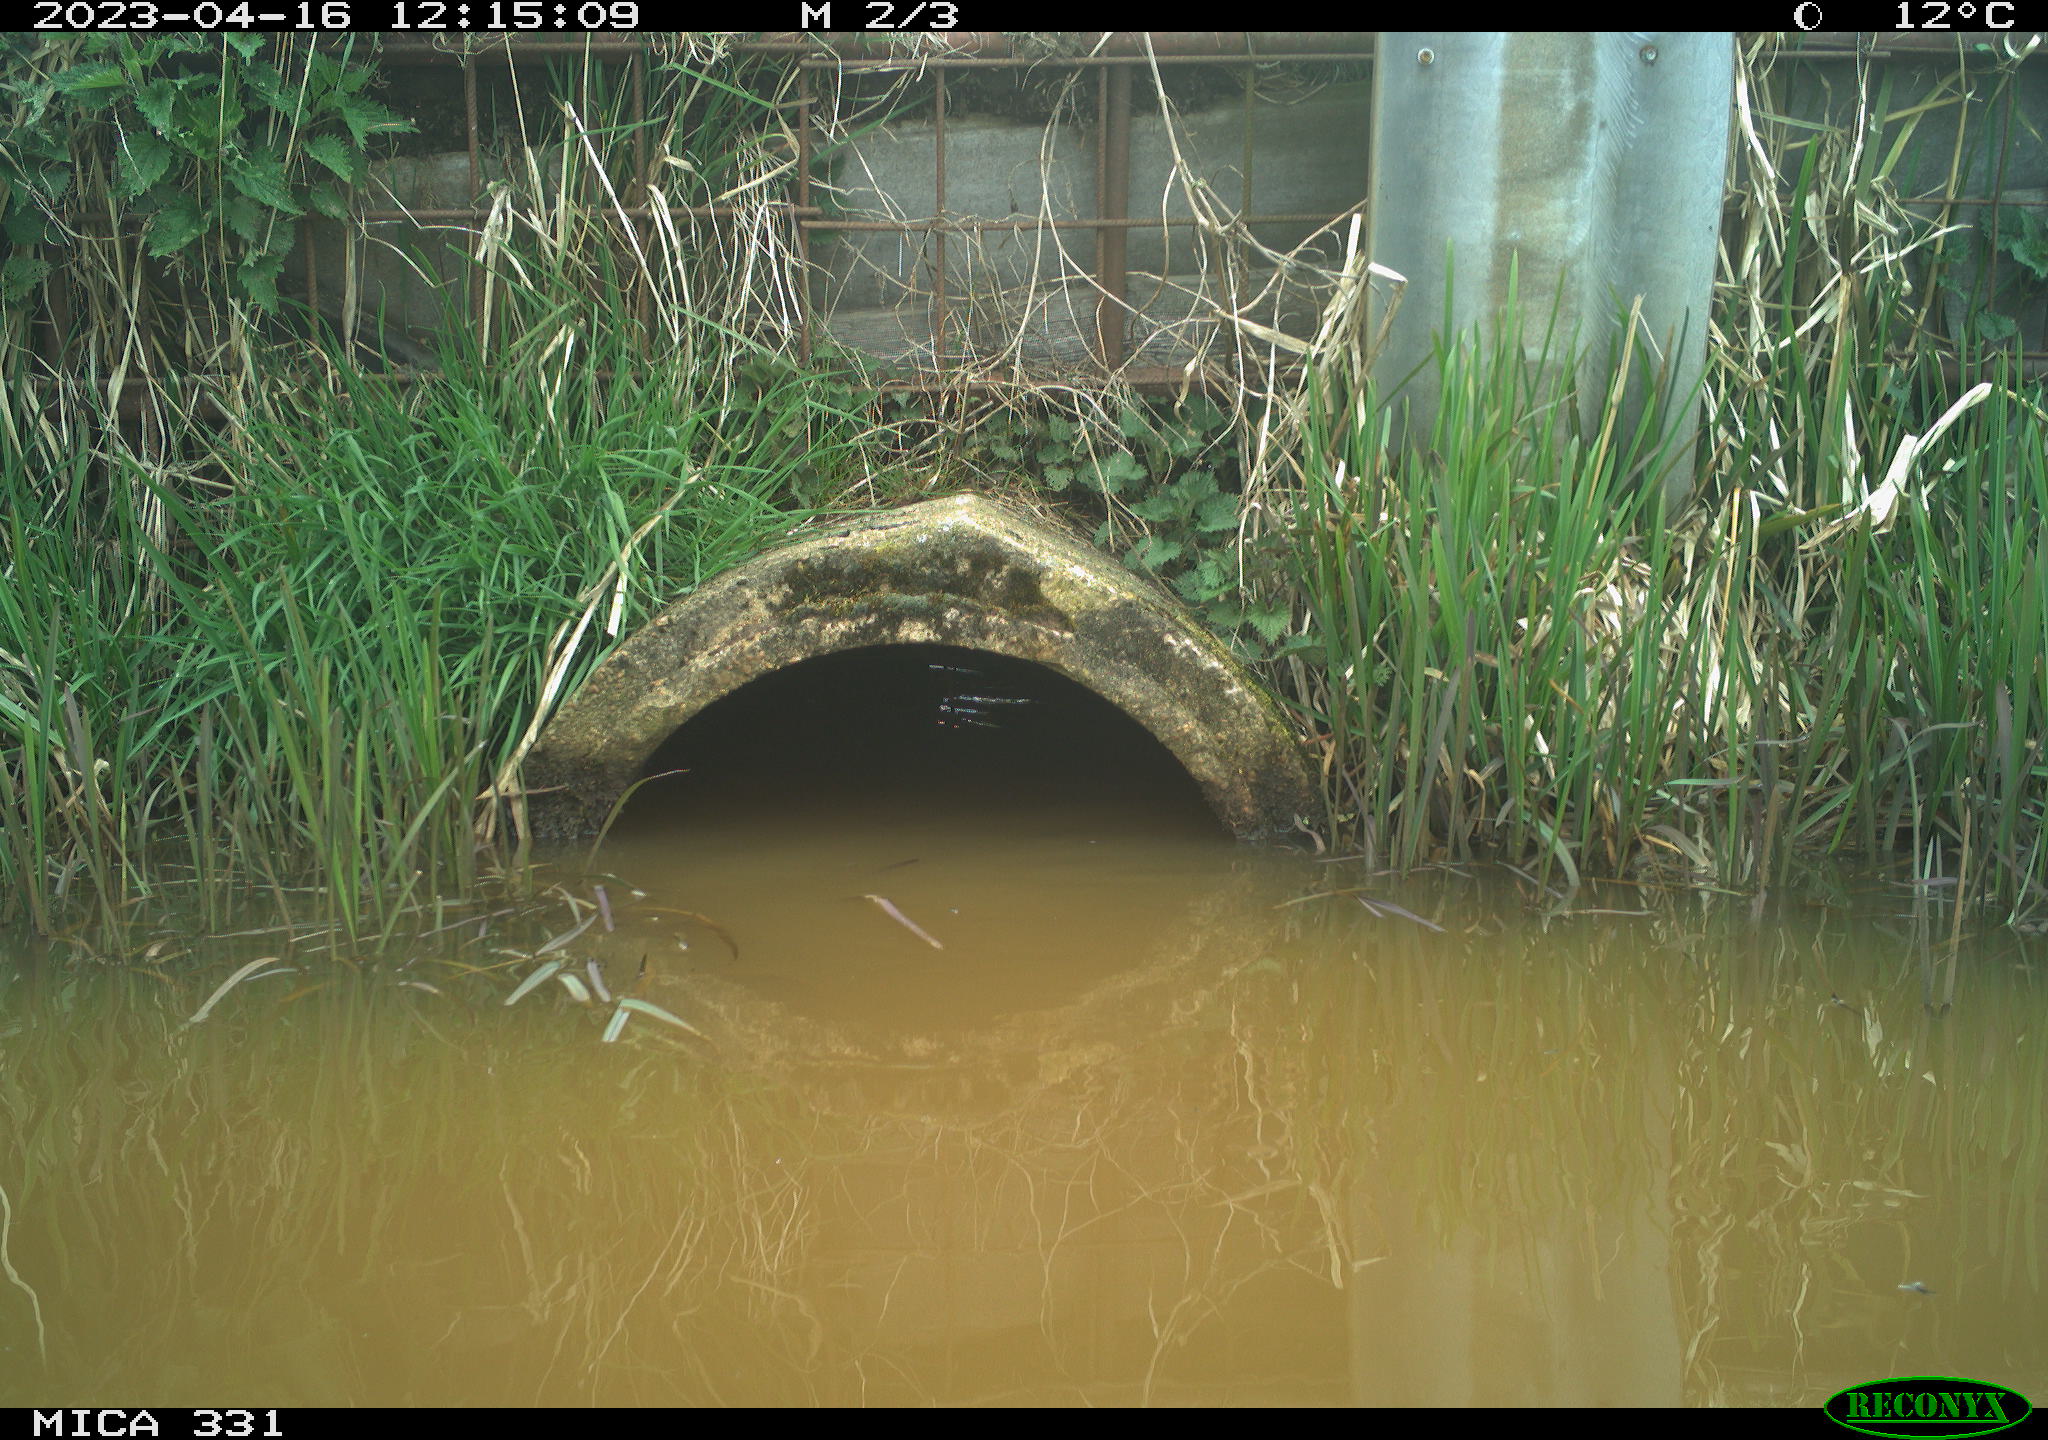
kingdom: Animalia
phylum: Chordata
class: Aves
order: Gruiformes
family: Rallidae
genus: Fulica
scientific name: Fulica atra
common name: Eurasian coot
